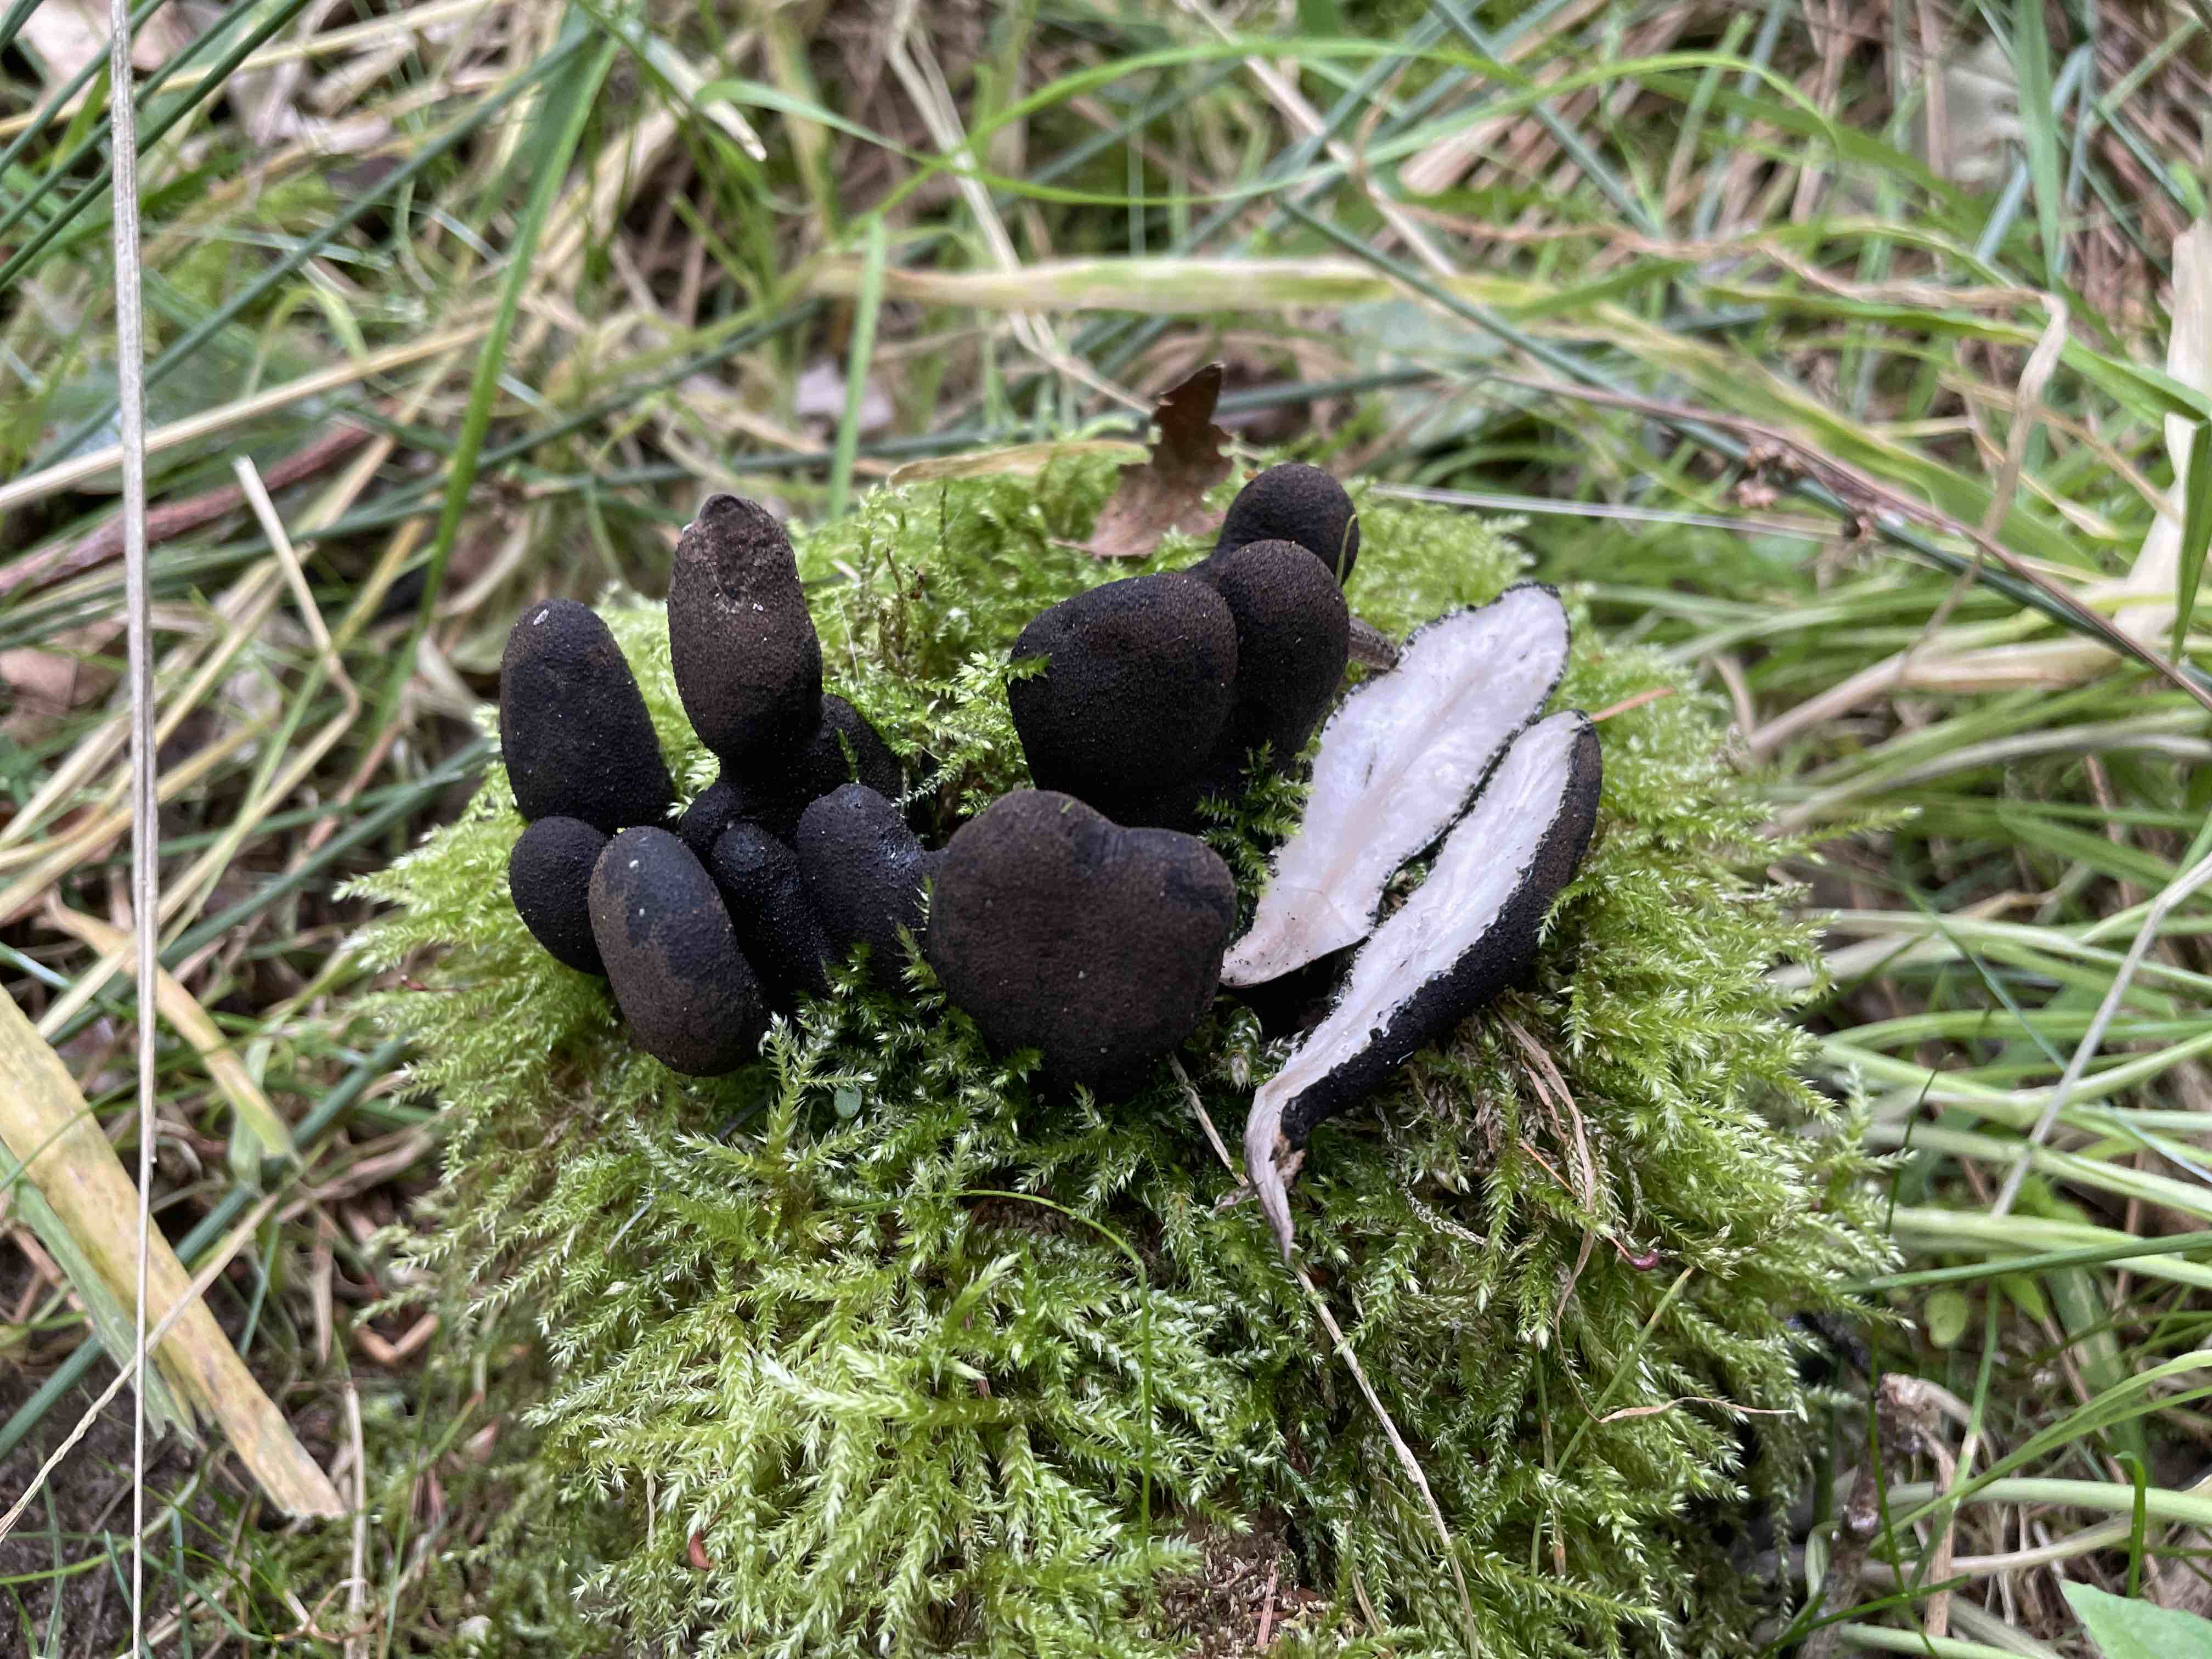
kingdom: Fungi
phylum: Ascomycota
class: Sordariomycetes
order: Xylariales
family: Xylariaceae
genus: Xylaria
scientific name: Xylaria polymorpha
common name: kølle-stødsvamp
